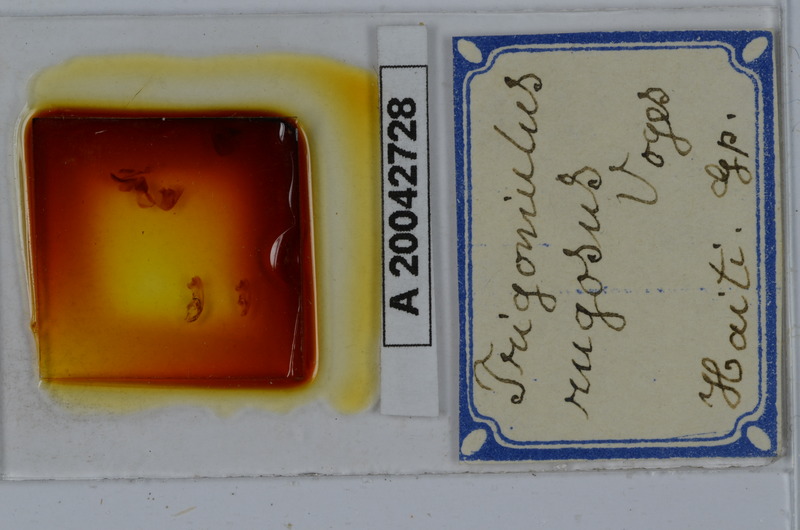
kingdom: Animalia
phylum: Arthropoda
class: Diplopoda
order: Spirobolida
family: Pachybolidae
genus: Trigoniulus
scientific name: Trigoniulus corallinus
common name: Millipede
